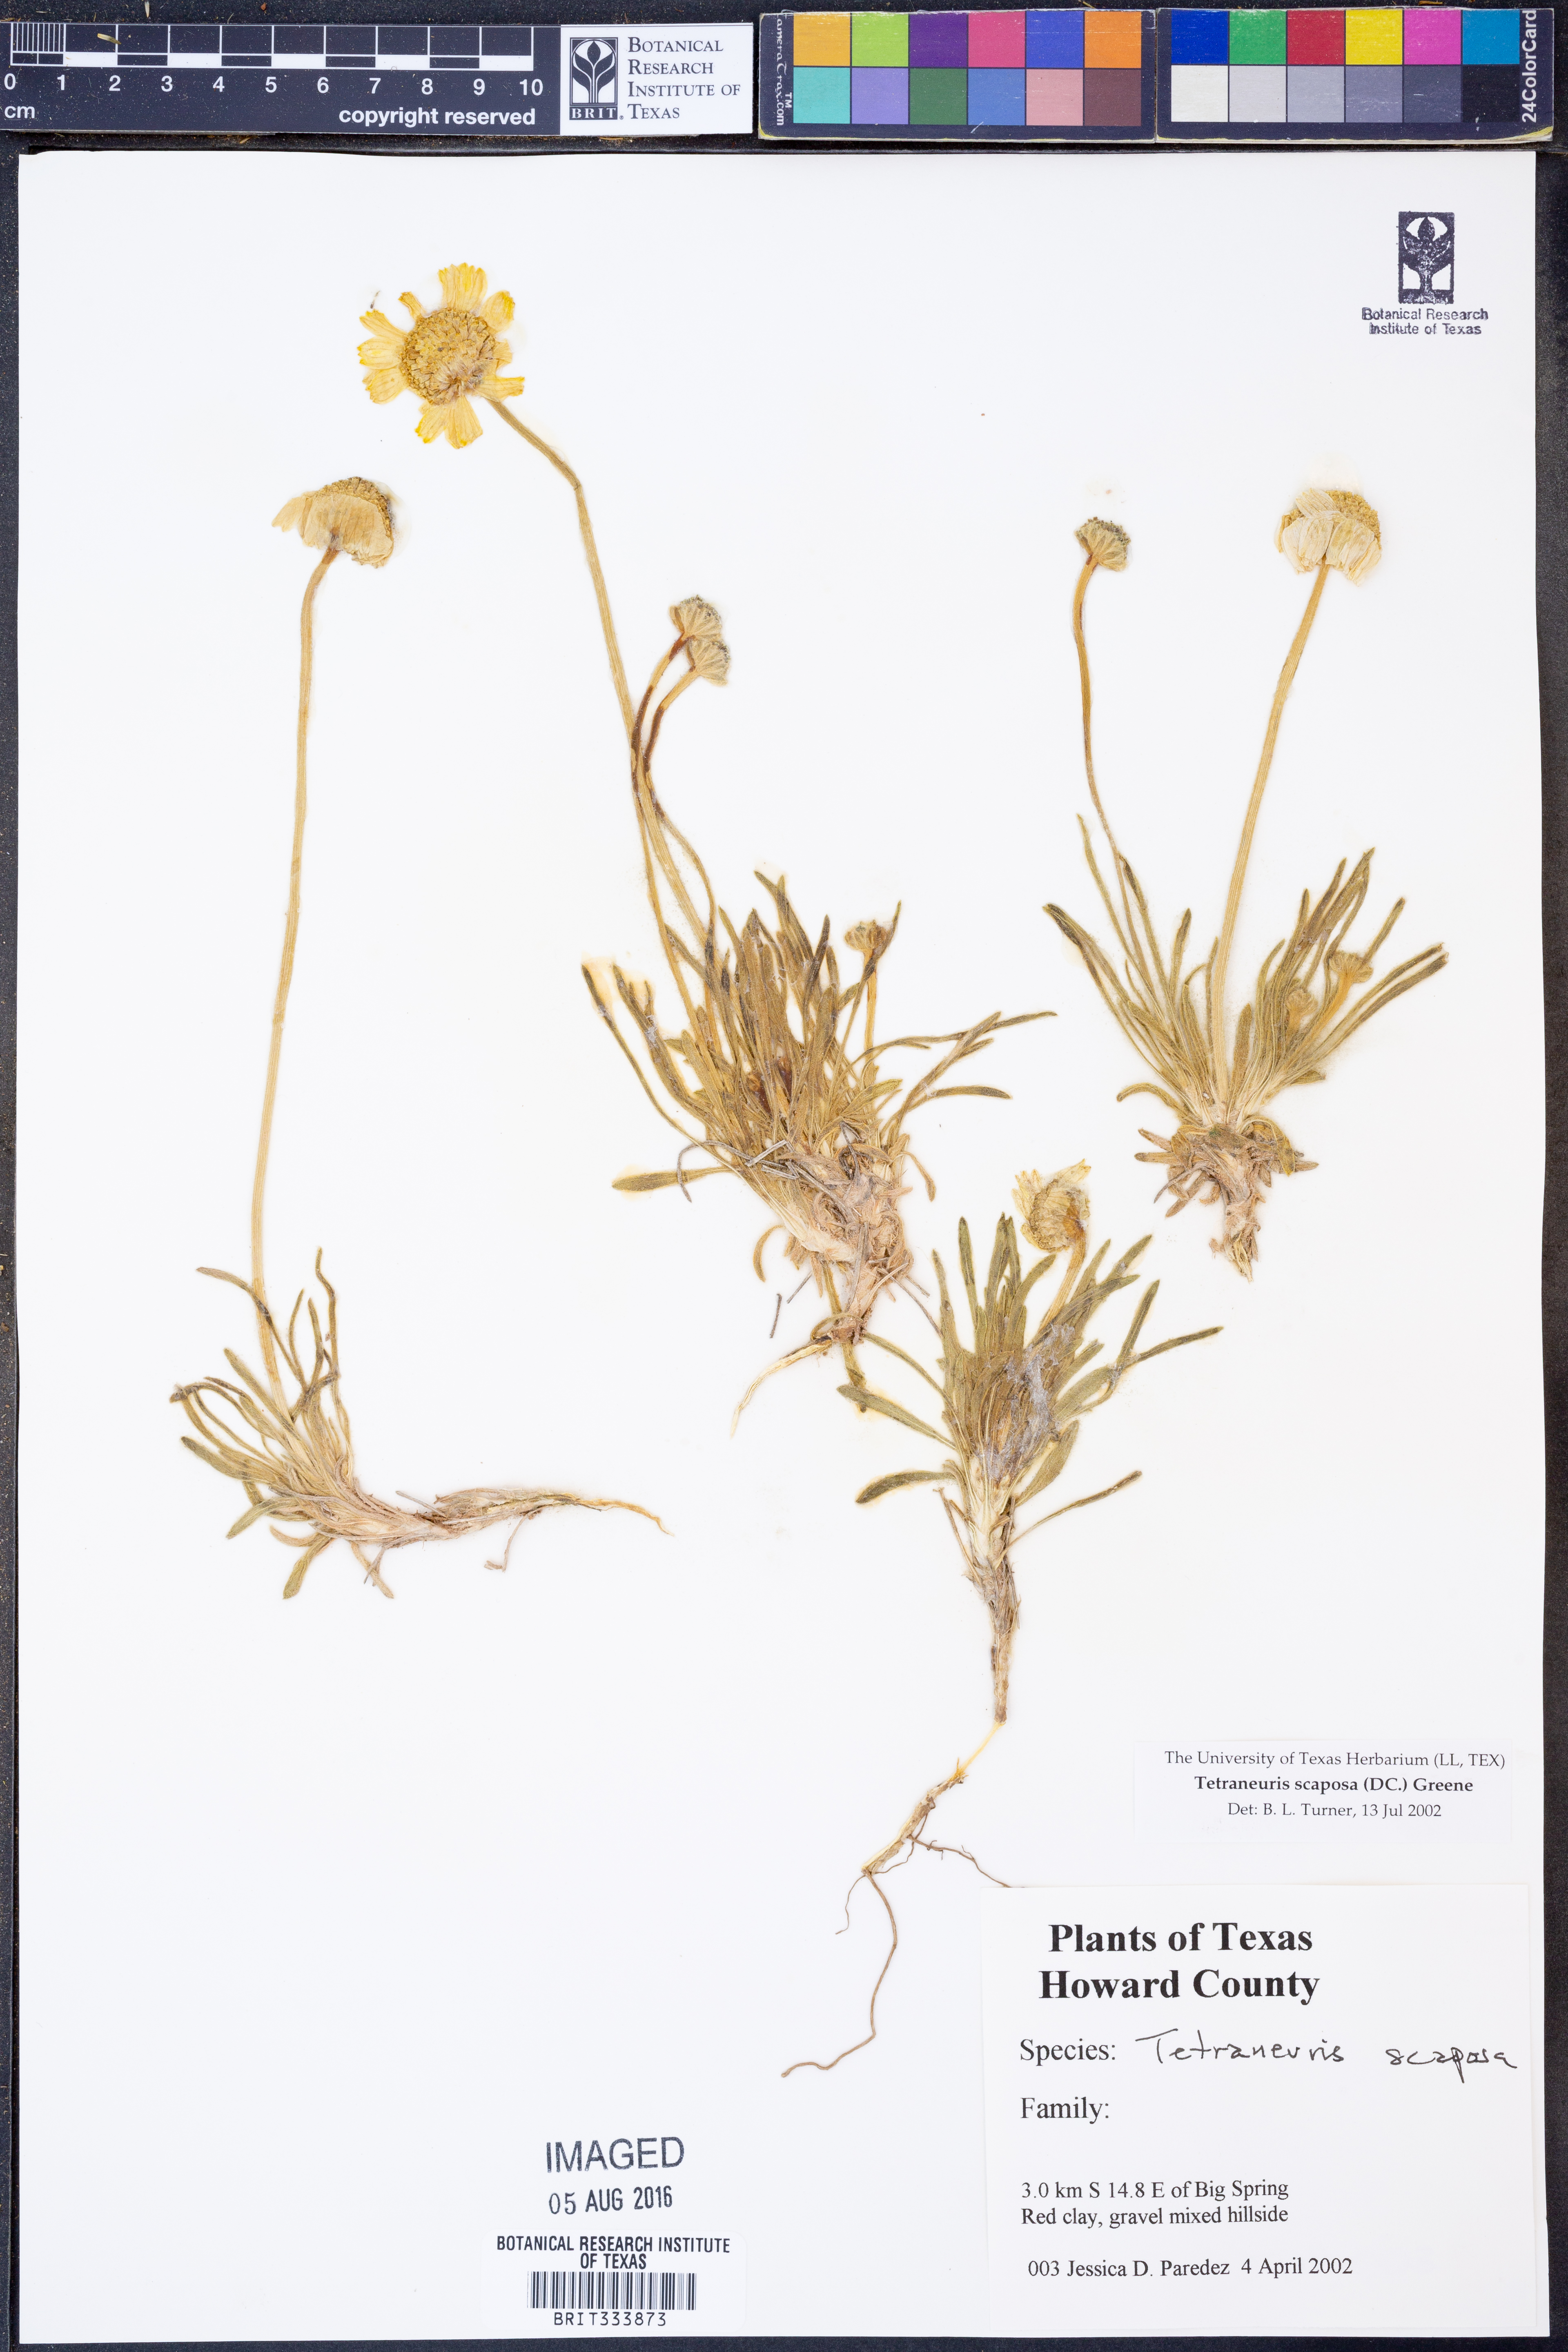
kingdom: Plantae
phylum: Tracheophyta
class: Magnoliopsida
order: Asterales
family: Asteraceae
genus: Tetraneuris
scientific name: Tetraneuris scaposa
